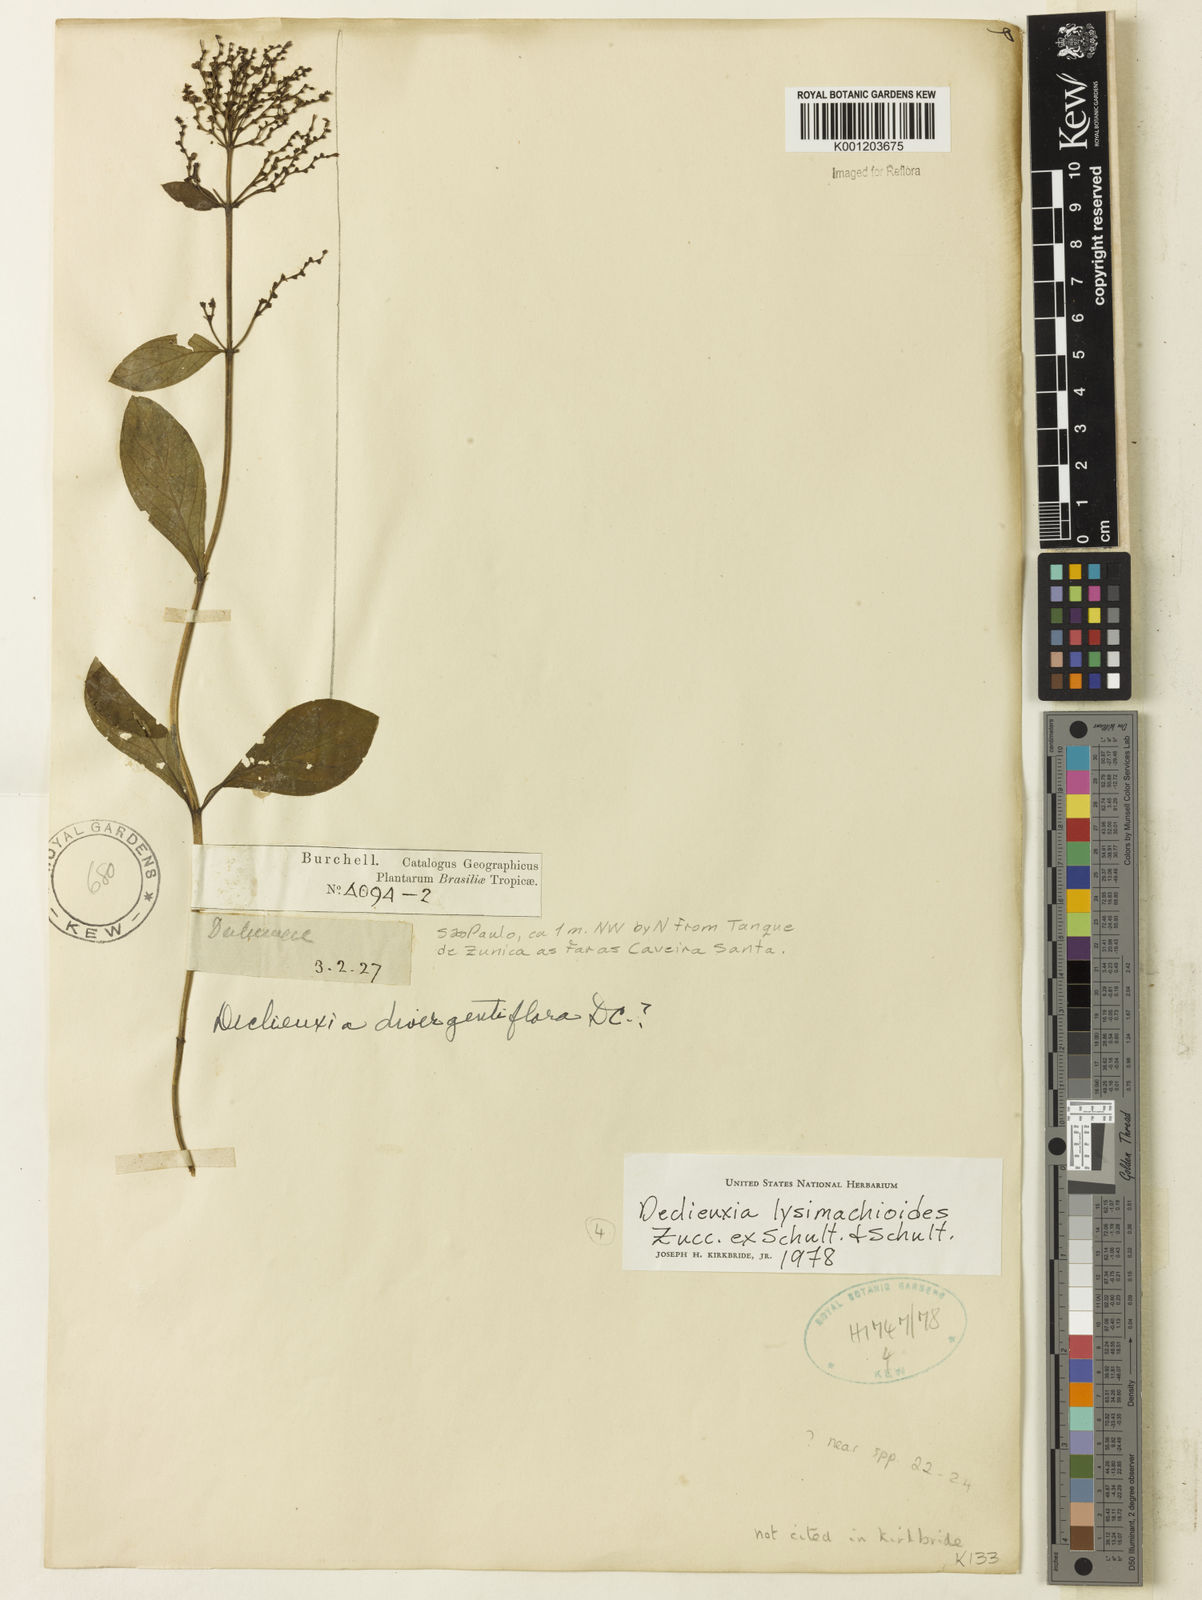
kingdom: Plantae
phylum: Tracheophyta
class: Magnoliopsida
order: Gentianales
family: Rubiaceae
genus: Declieuxia
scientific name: Declieuxia
